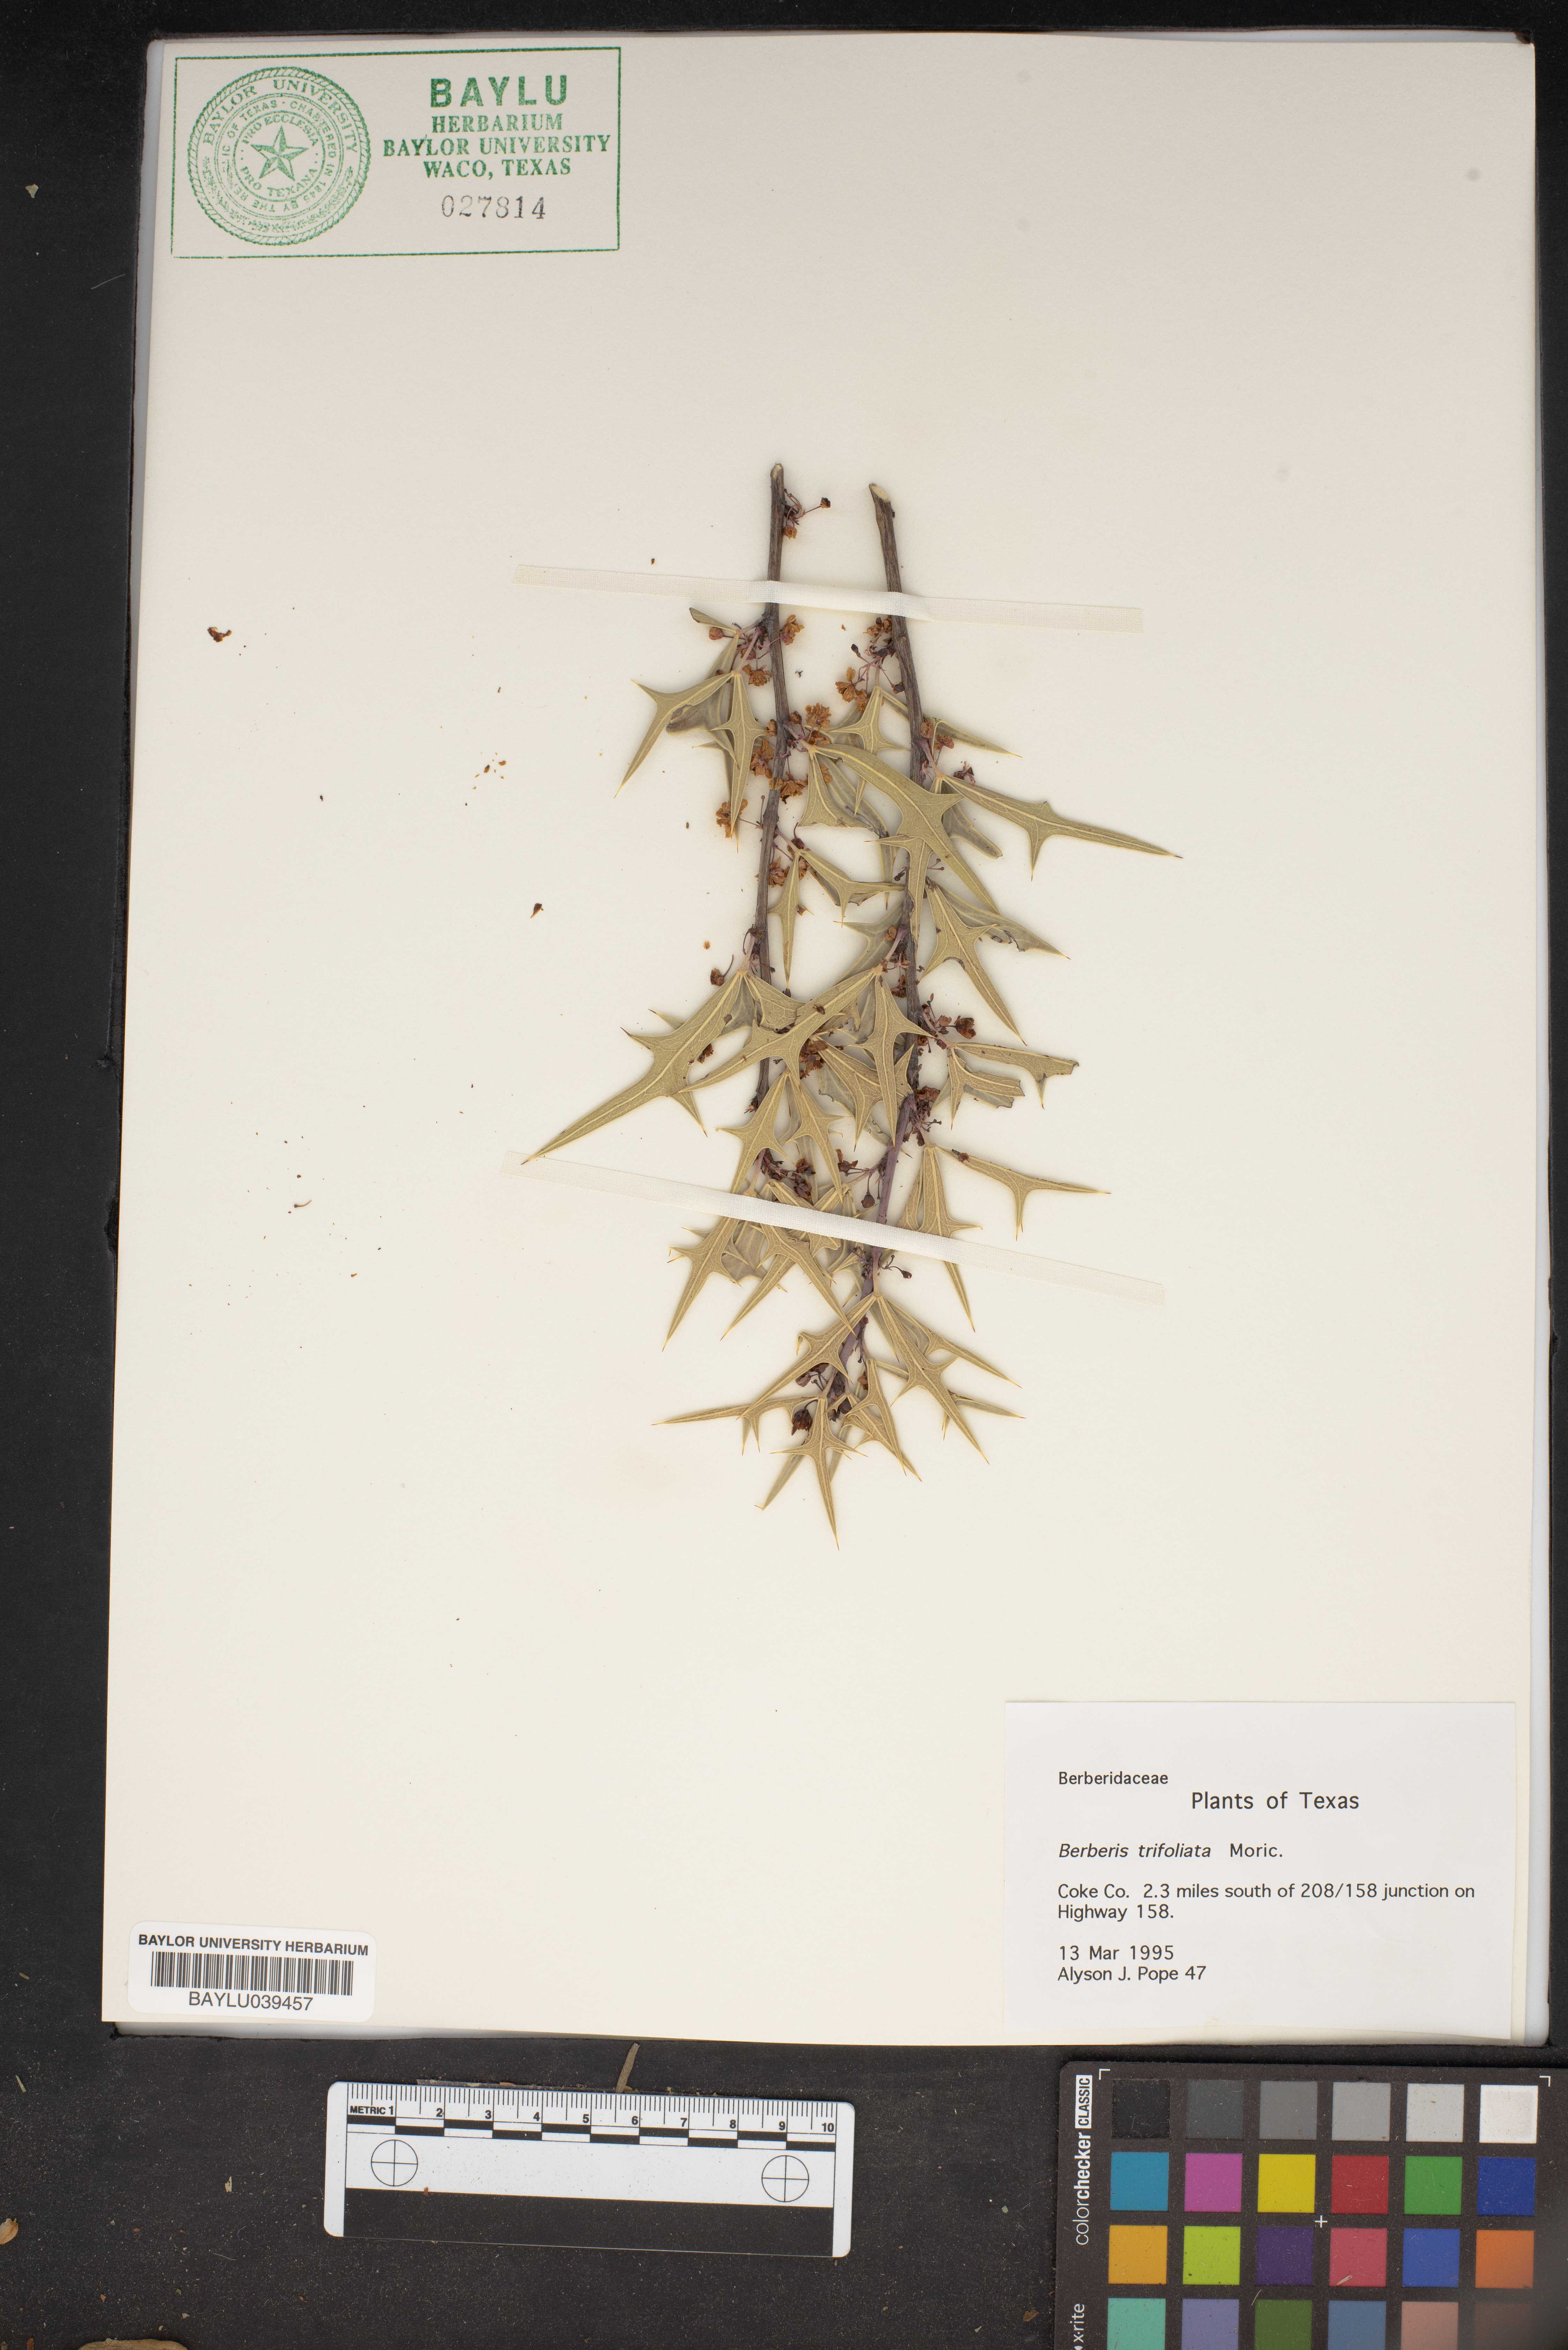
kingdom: Plantae
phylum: Tracheophyta
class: Magnoliopsida
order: Ranunculales
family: Berberidaceae
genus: Alloberberis
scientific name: Alloberberis fremontii
